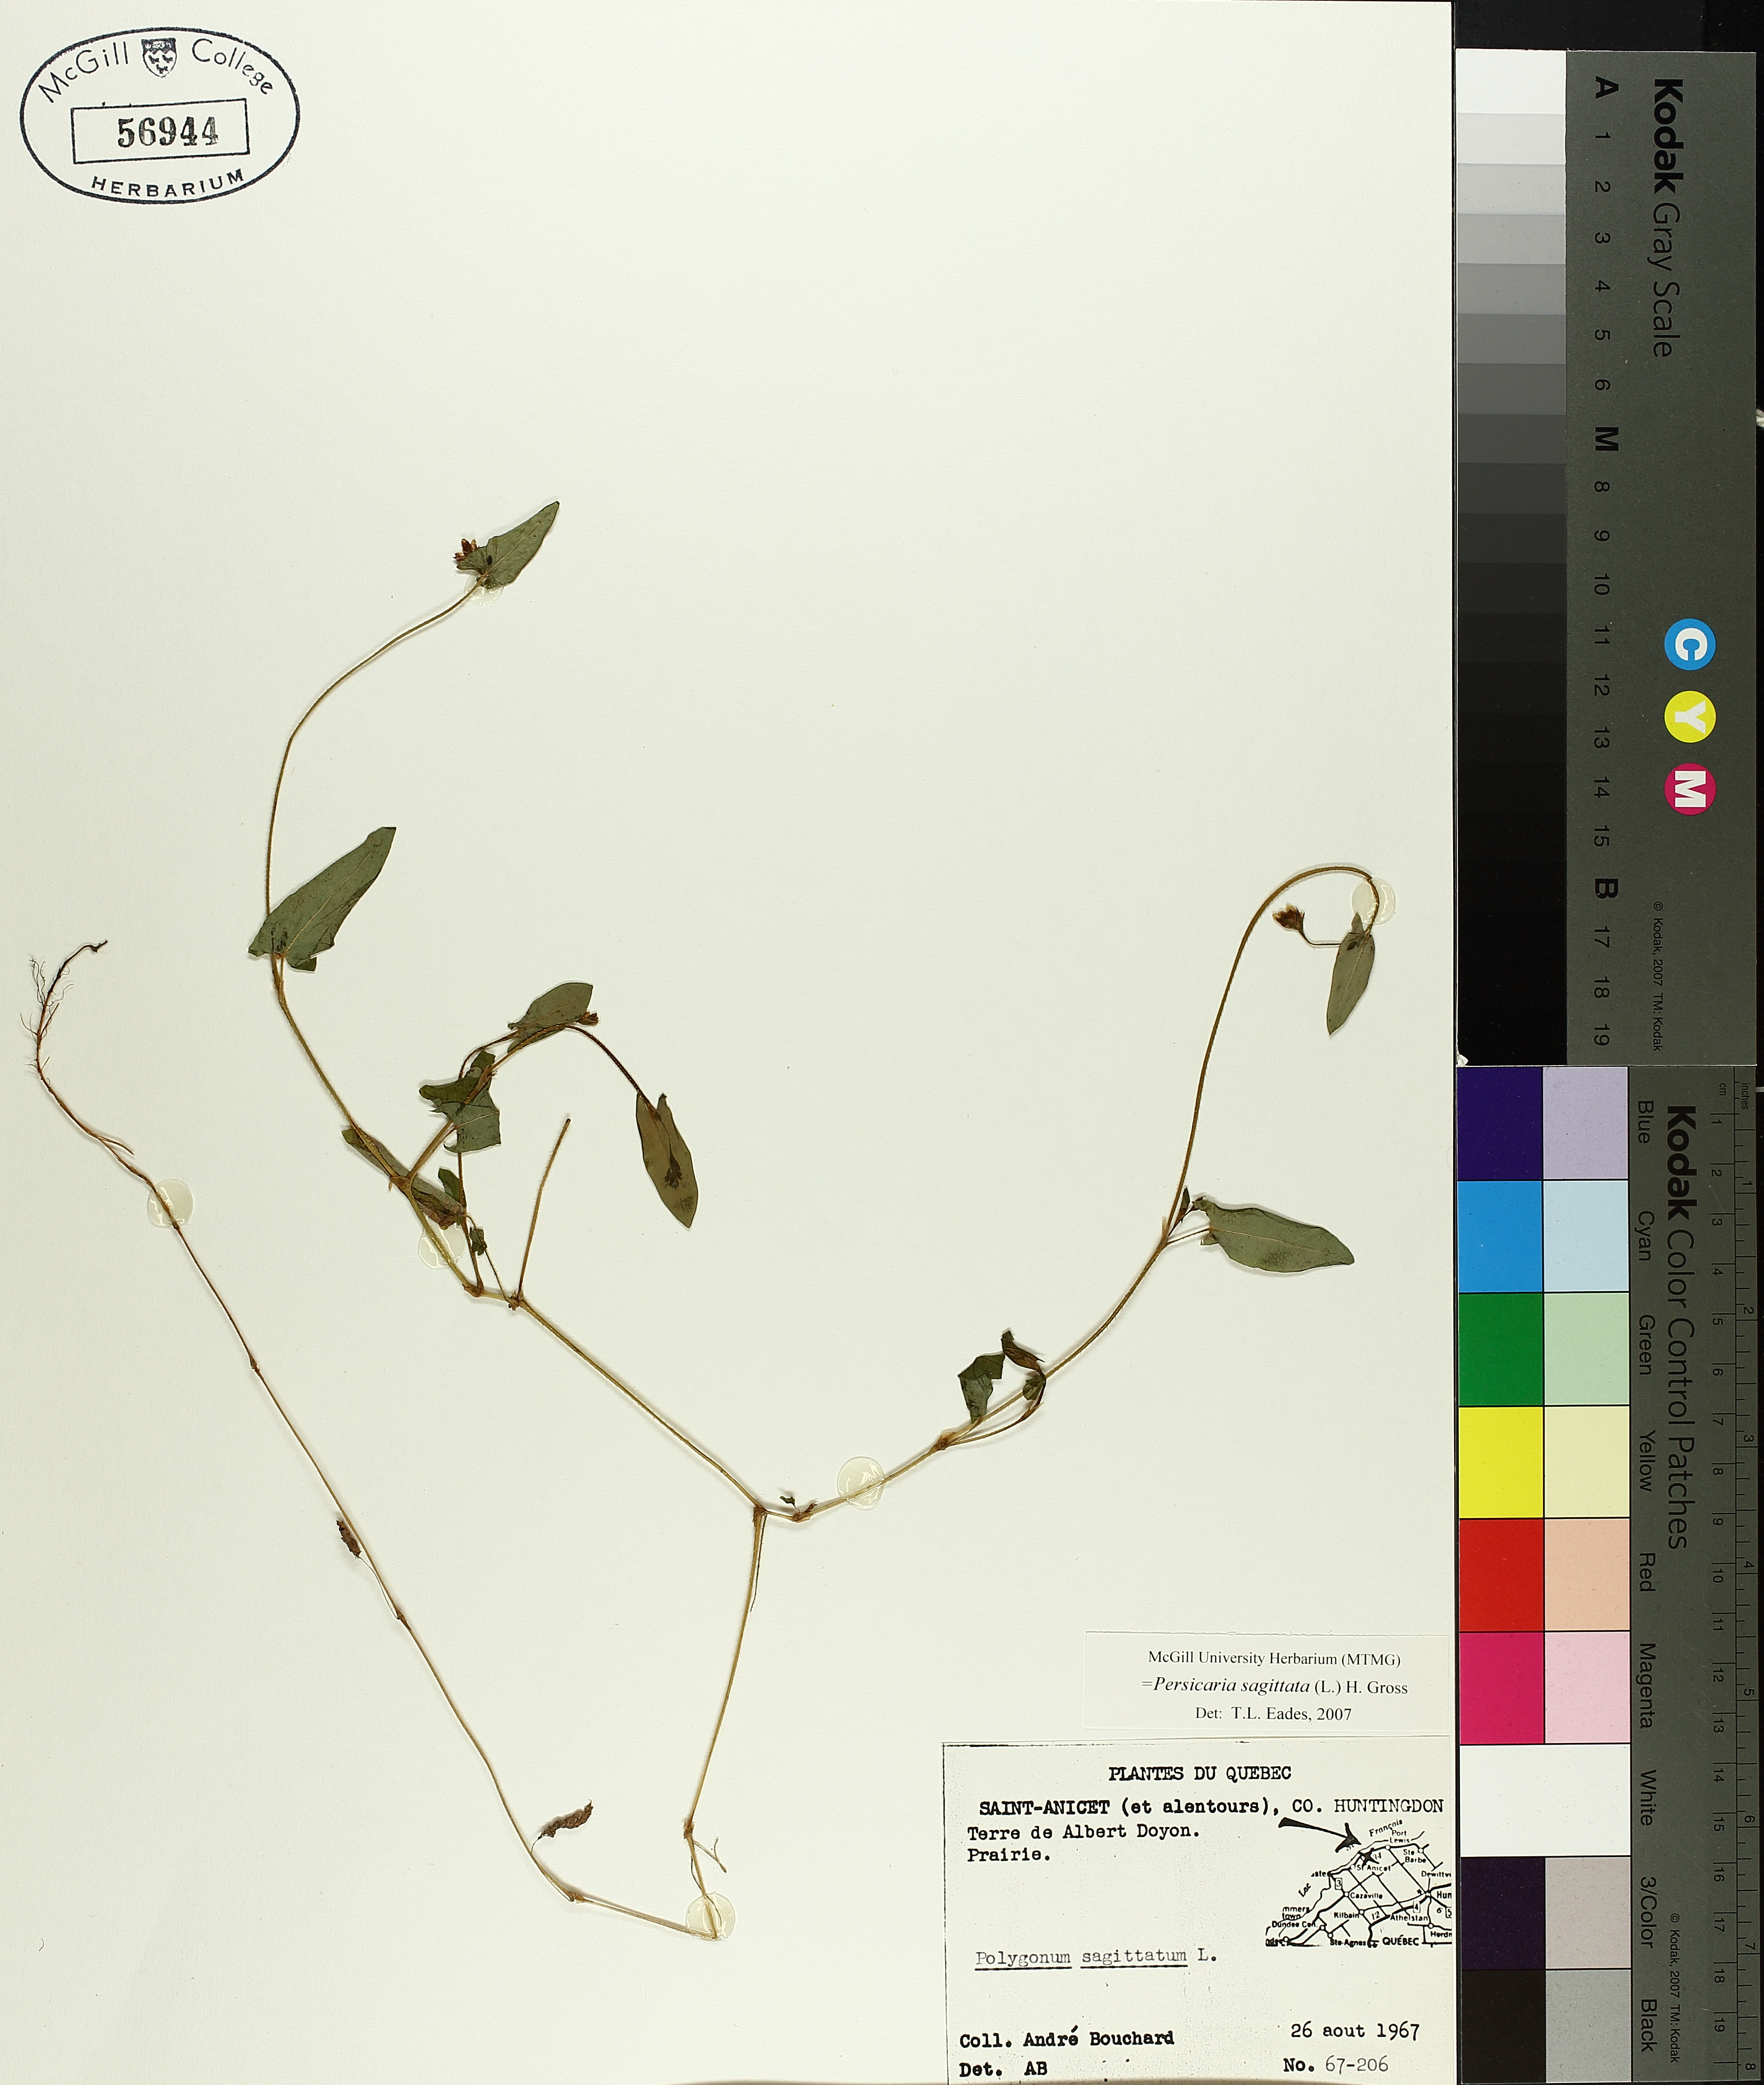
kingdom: Plantae
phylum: Tracheophyta
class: Magnoliopsida
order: Caryophyllales
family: Polygonaceae
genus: Persicaria
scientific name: Persicaria sagittata
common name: American tearthumb
